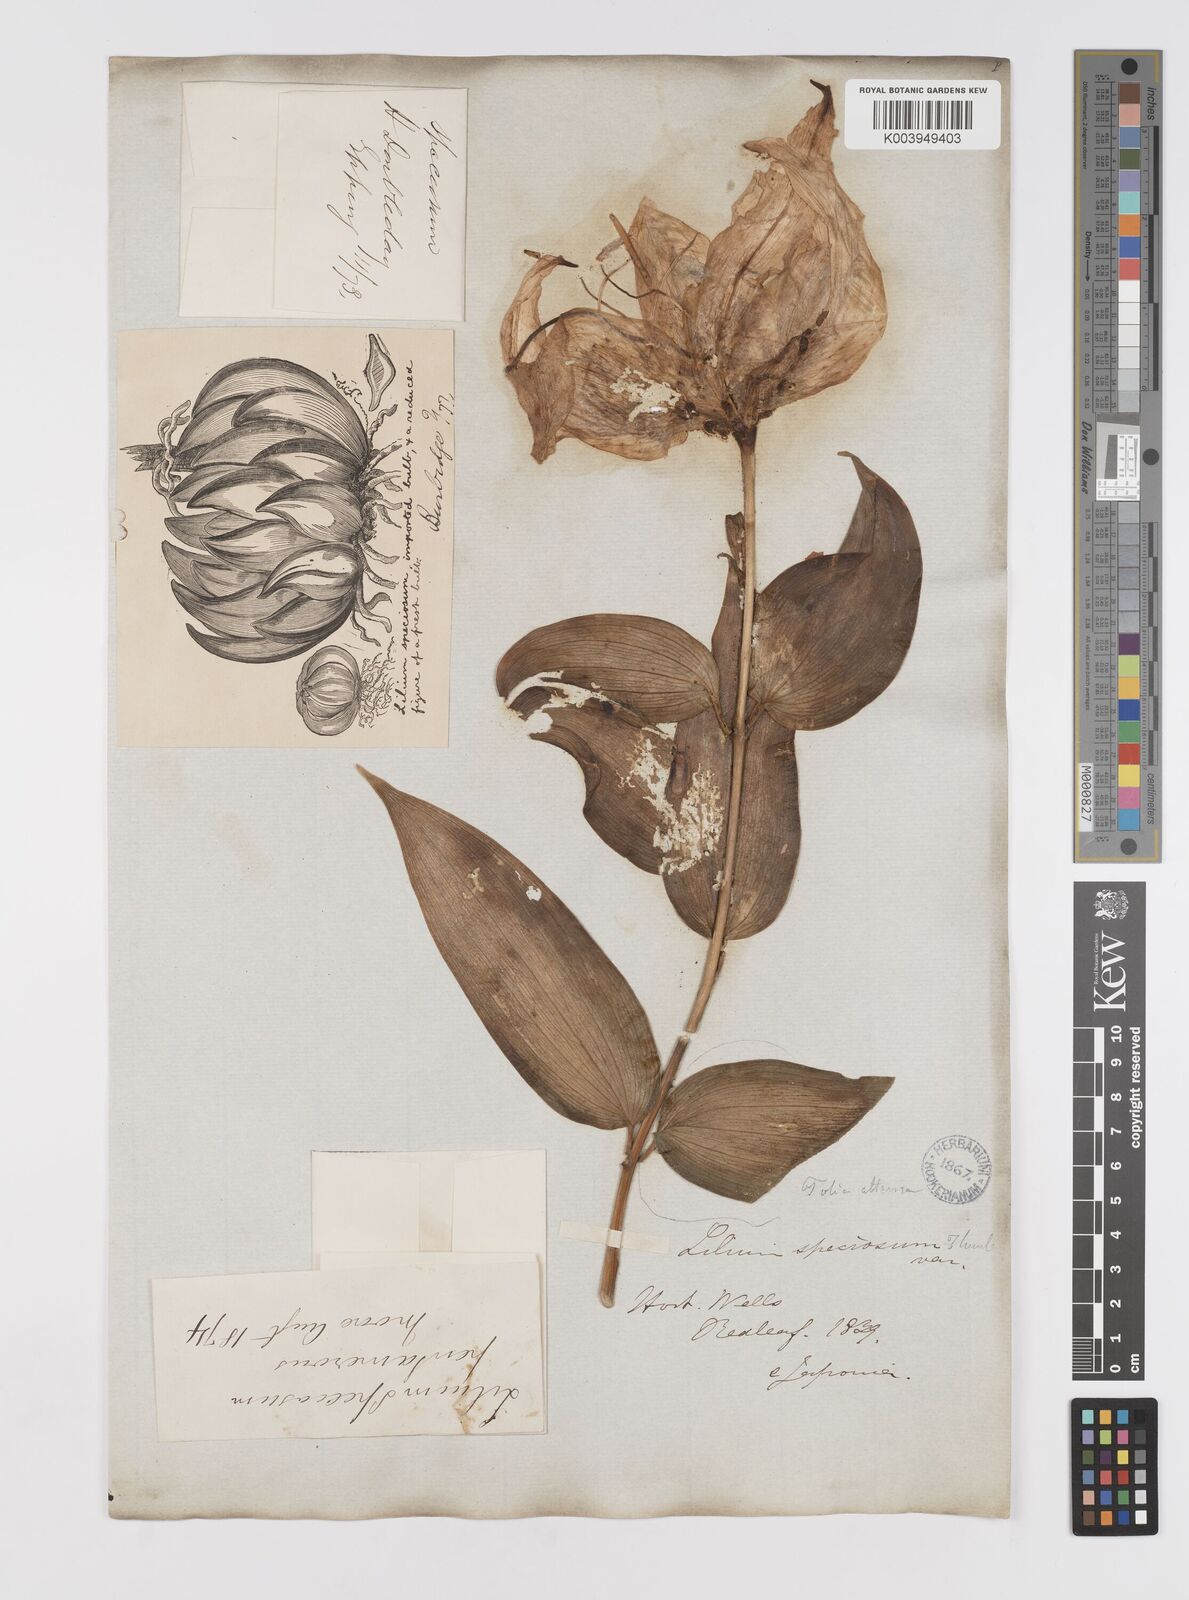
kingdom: Plantae
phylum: Tracheophyta
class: Liliopsida
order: Liliales
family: Liliaceae
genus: Lilium
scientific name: Lilium speciosum
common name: Japanese lily
